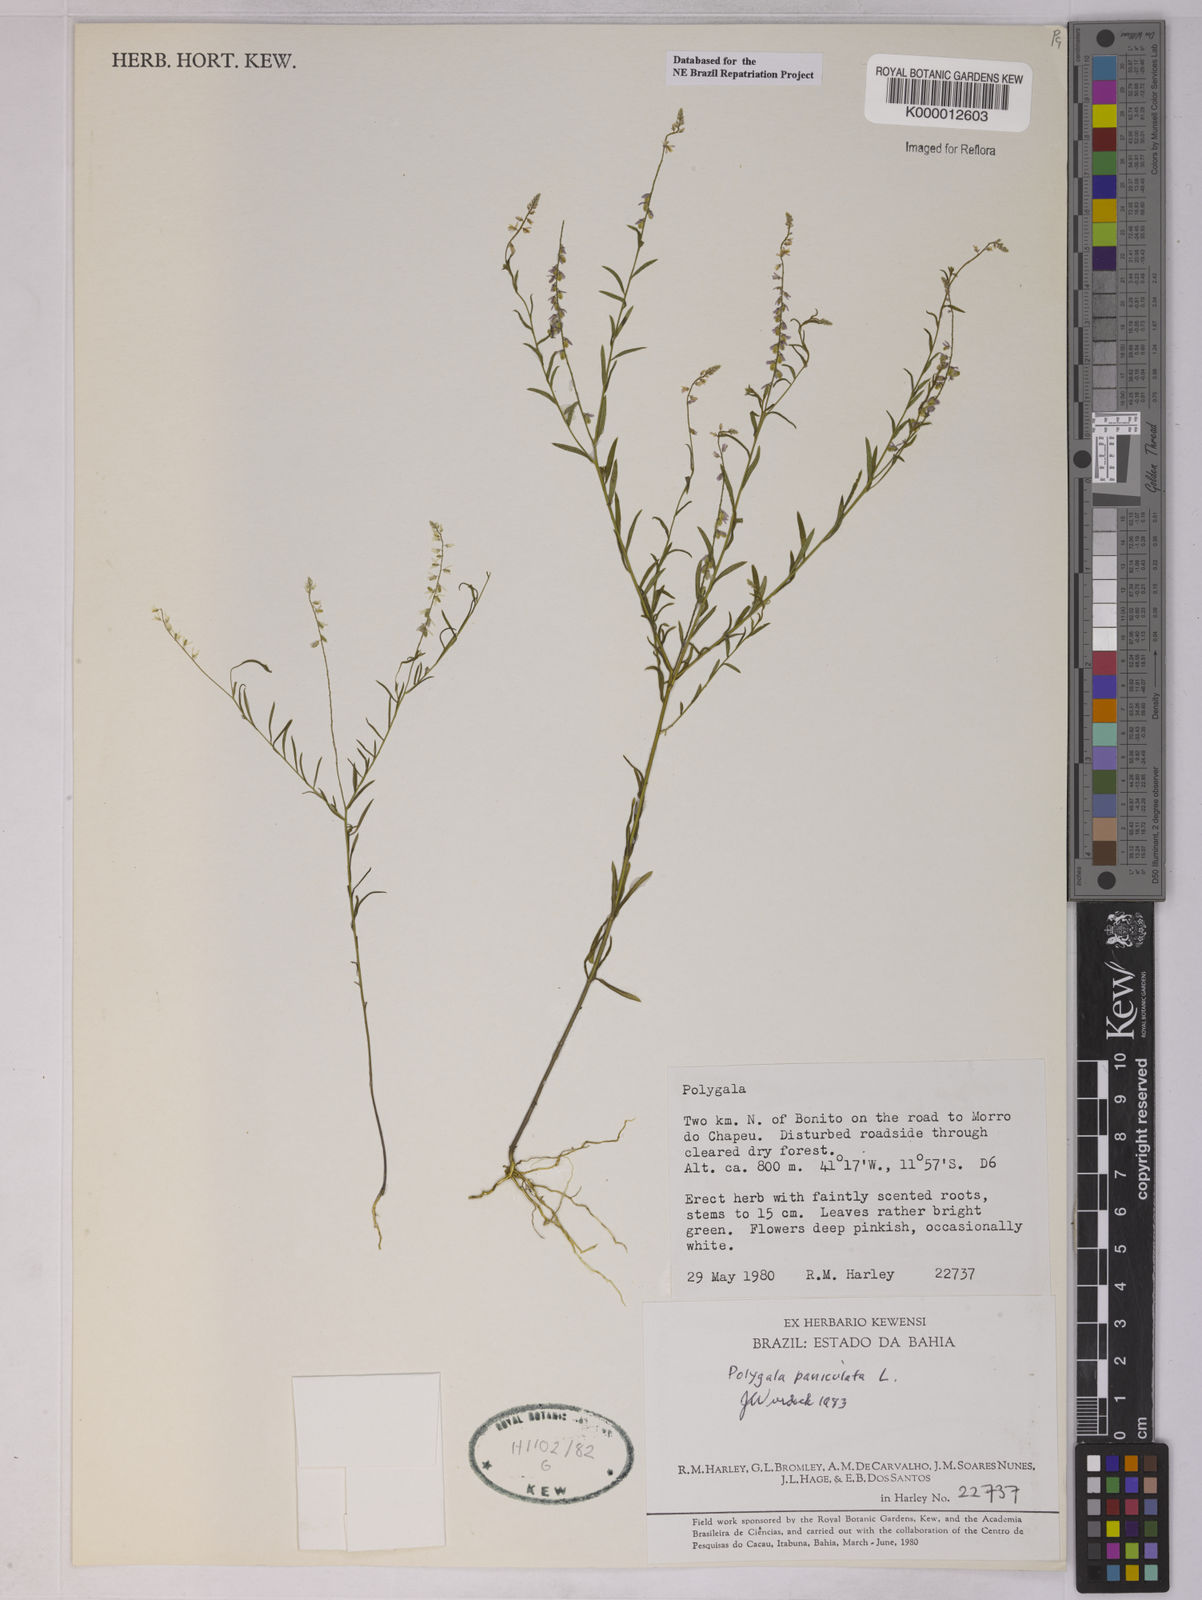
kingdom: Plantae
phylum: Tracheophyta
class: Magnoliopsida
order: Fabales
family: Polygalaceae
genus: Polygala
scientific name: Polygala paniculata
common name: Orosne
